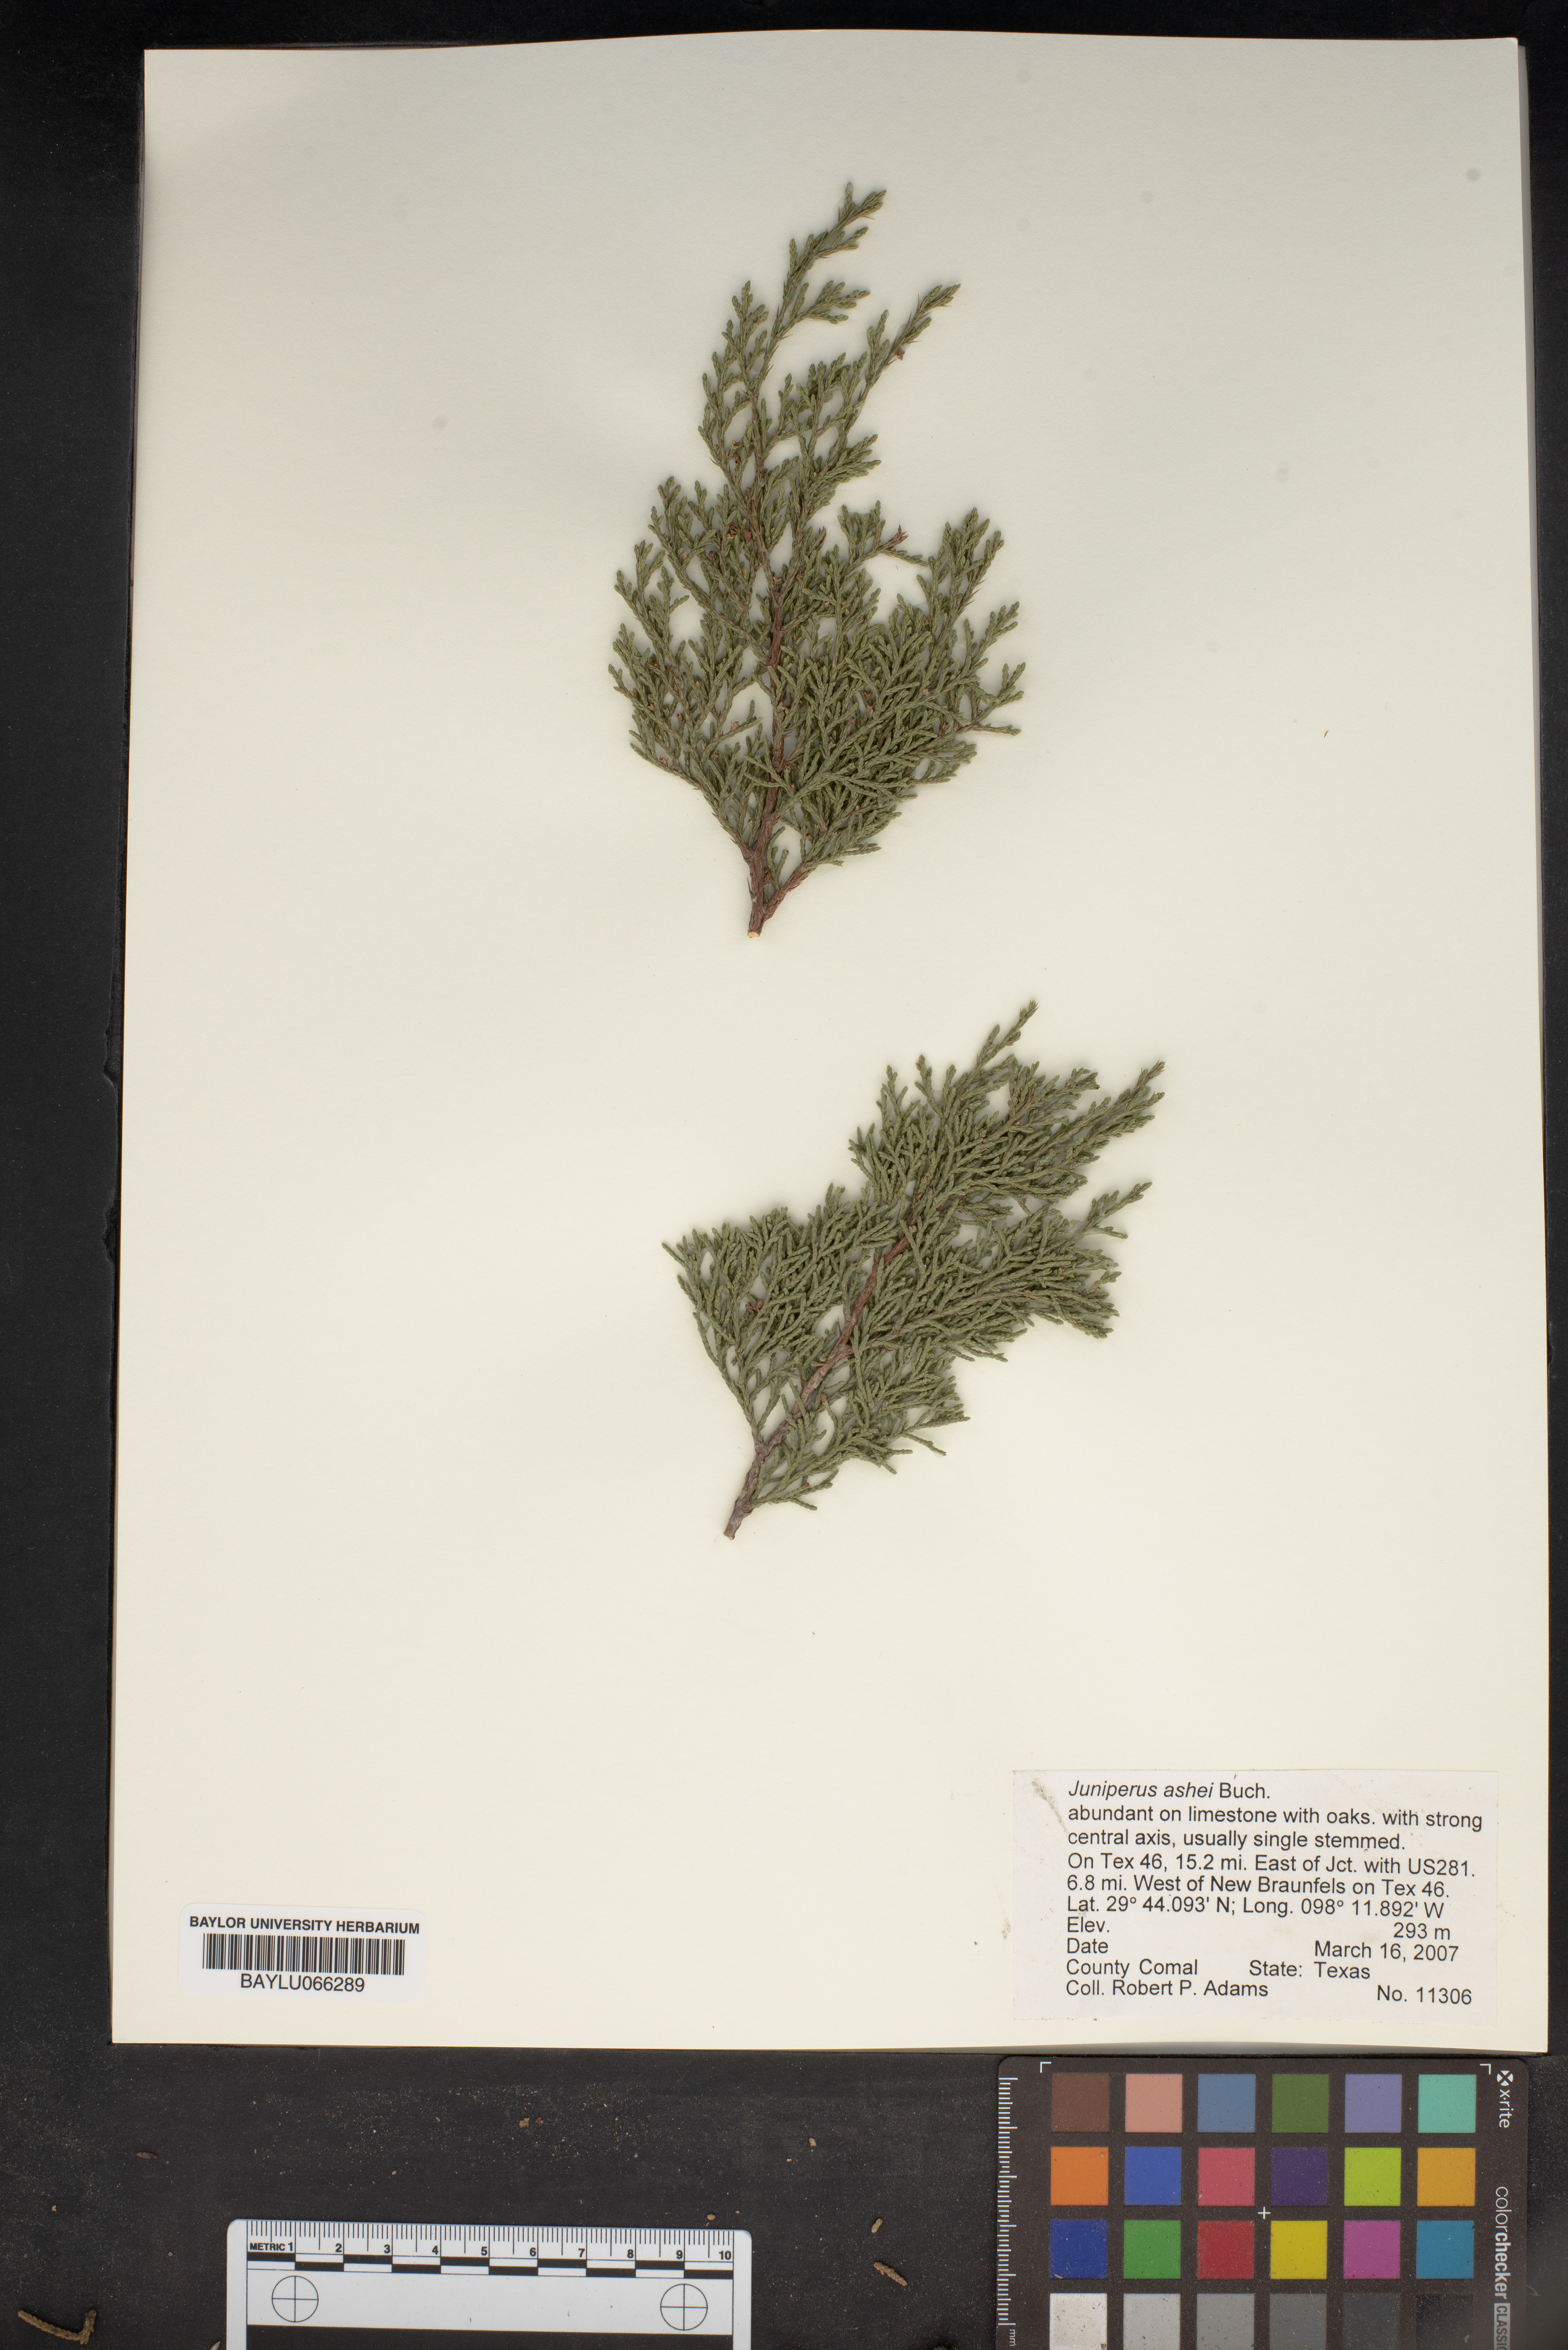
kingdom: Plantae
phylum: Tracheophyta
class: Pinopsida
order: Pinales
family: Cupressaceae
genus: Juniperus
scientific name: Juniperus ashei
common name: Mexican juniper
